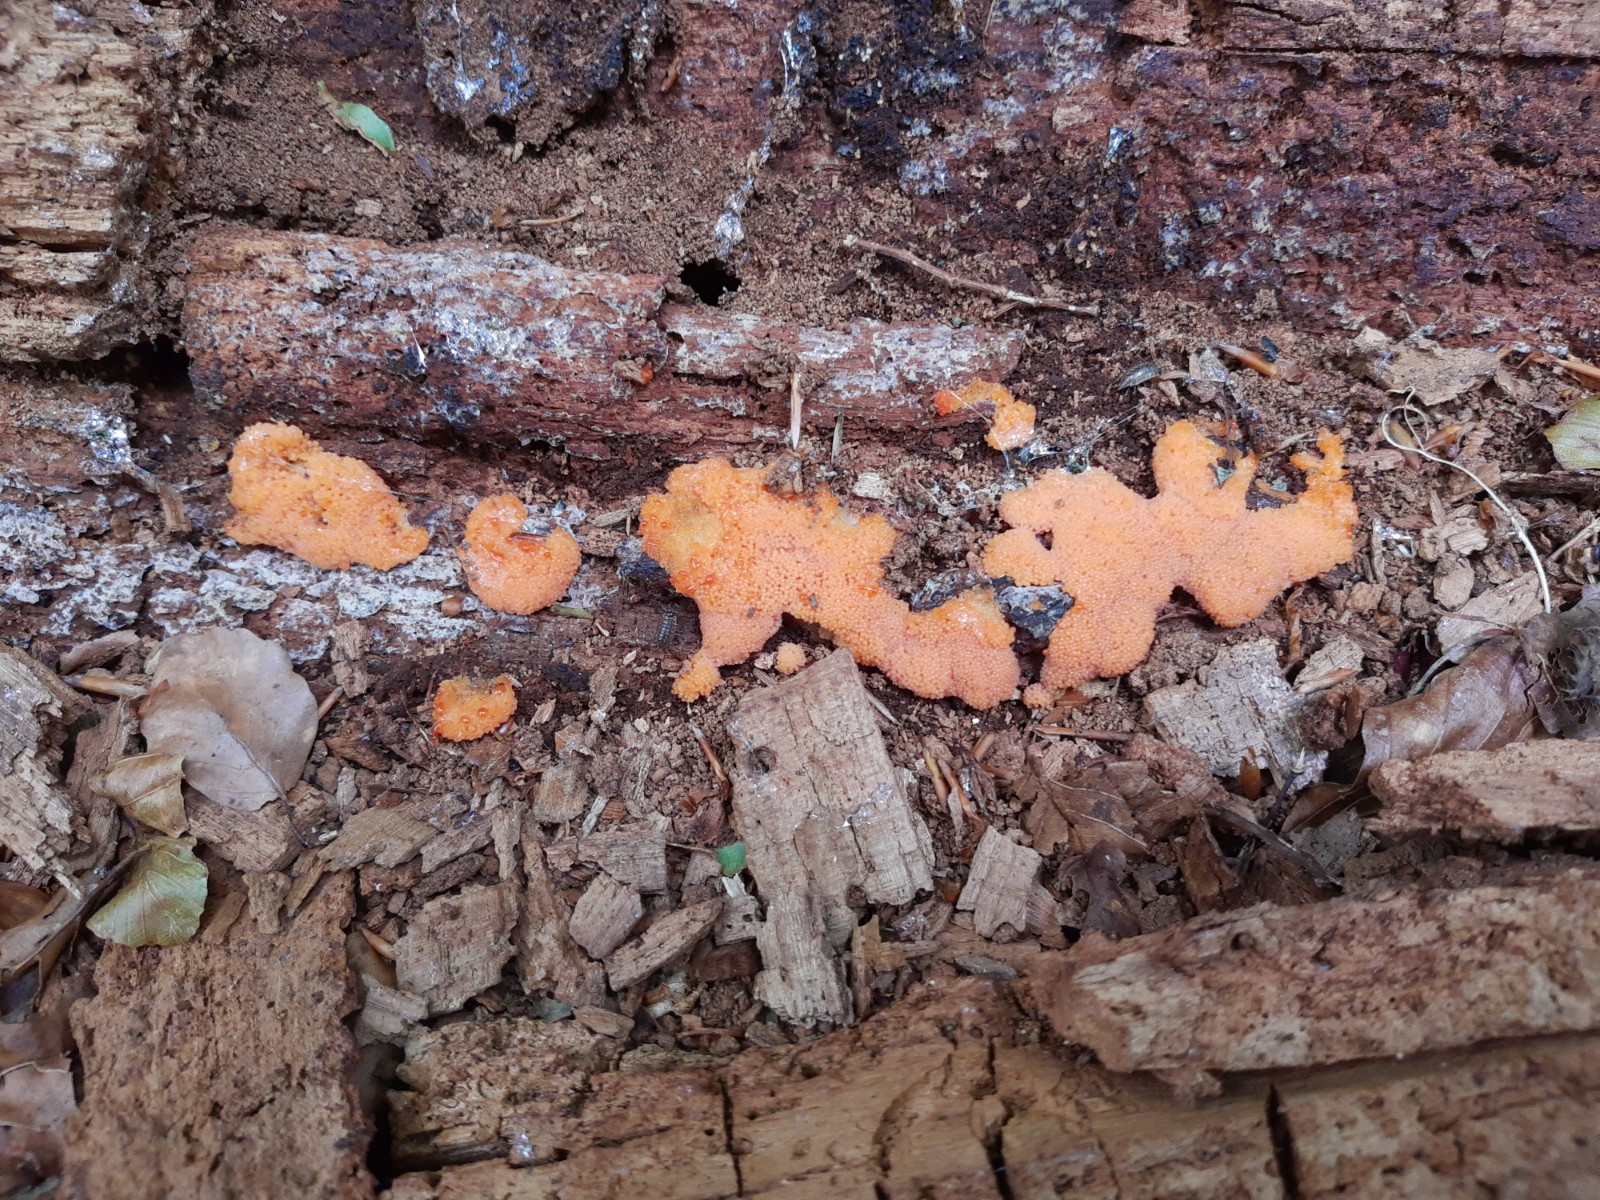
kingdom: Protozoa
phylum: Mycetozoa
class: Myxomycetes
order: Cribrariales
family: Tubiferaceae
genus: Tubifera
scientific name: Tubifera ferruginosa
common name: kanel-støvrør
